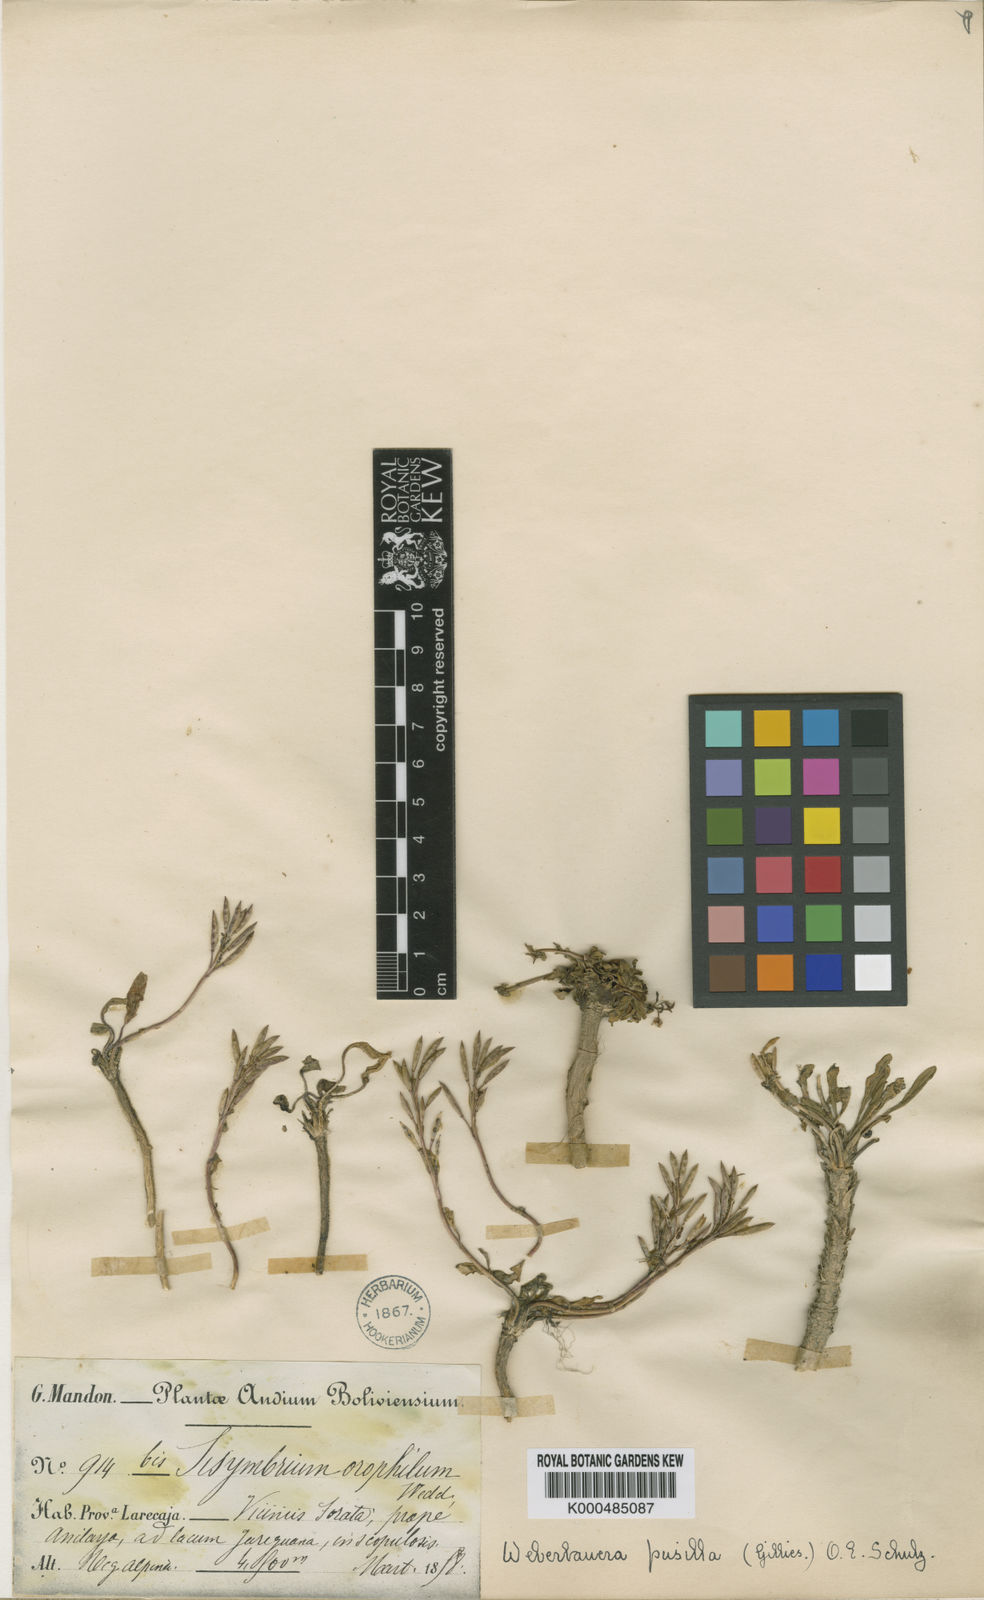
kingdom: Plantae
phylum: Tracheophyta
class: Magnoliopsida
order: Brassicales
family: Brassicaceae
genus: Weberbauera
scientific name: Weberbauera spathulifolia
